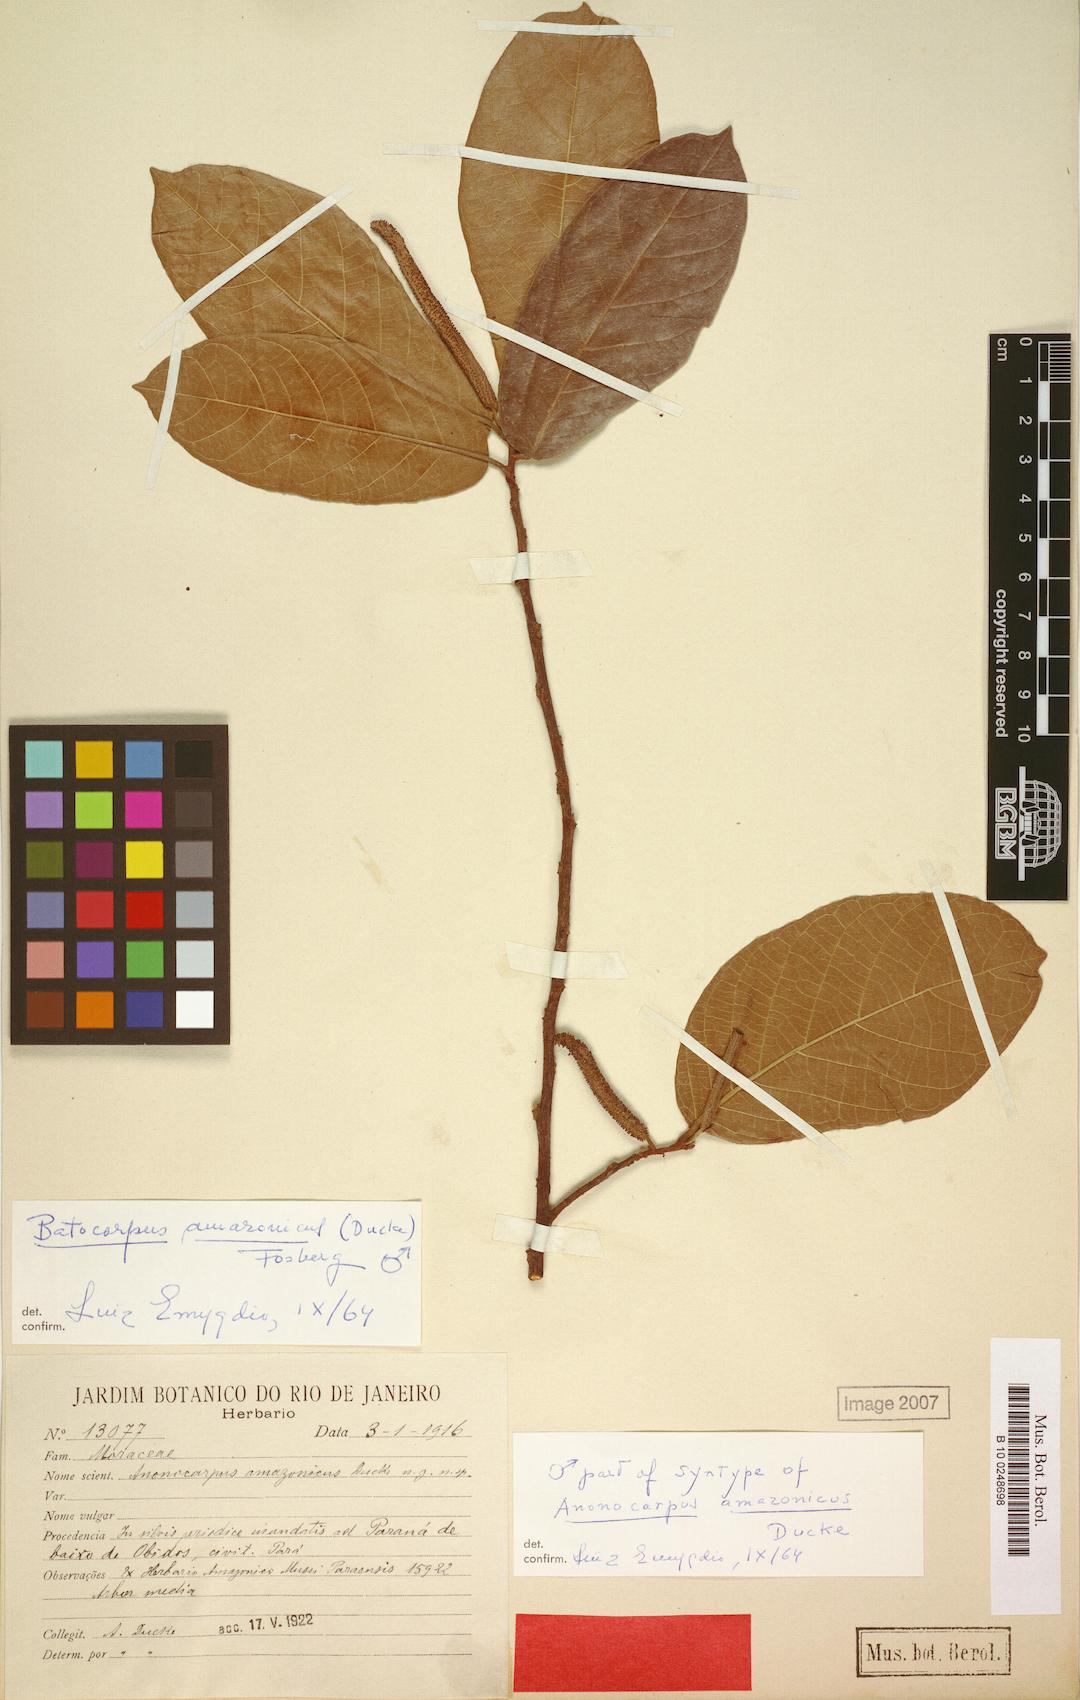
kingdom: Plantae
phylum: Tracheophyta
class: Magnoliopsida
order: Rosales
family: Moraceae
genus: Batocarpus
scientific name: Batocarpus amazonicus
